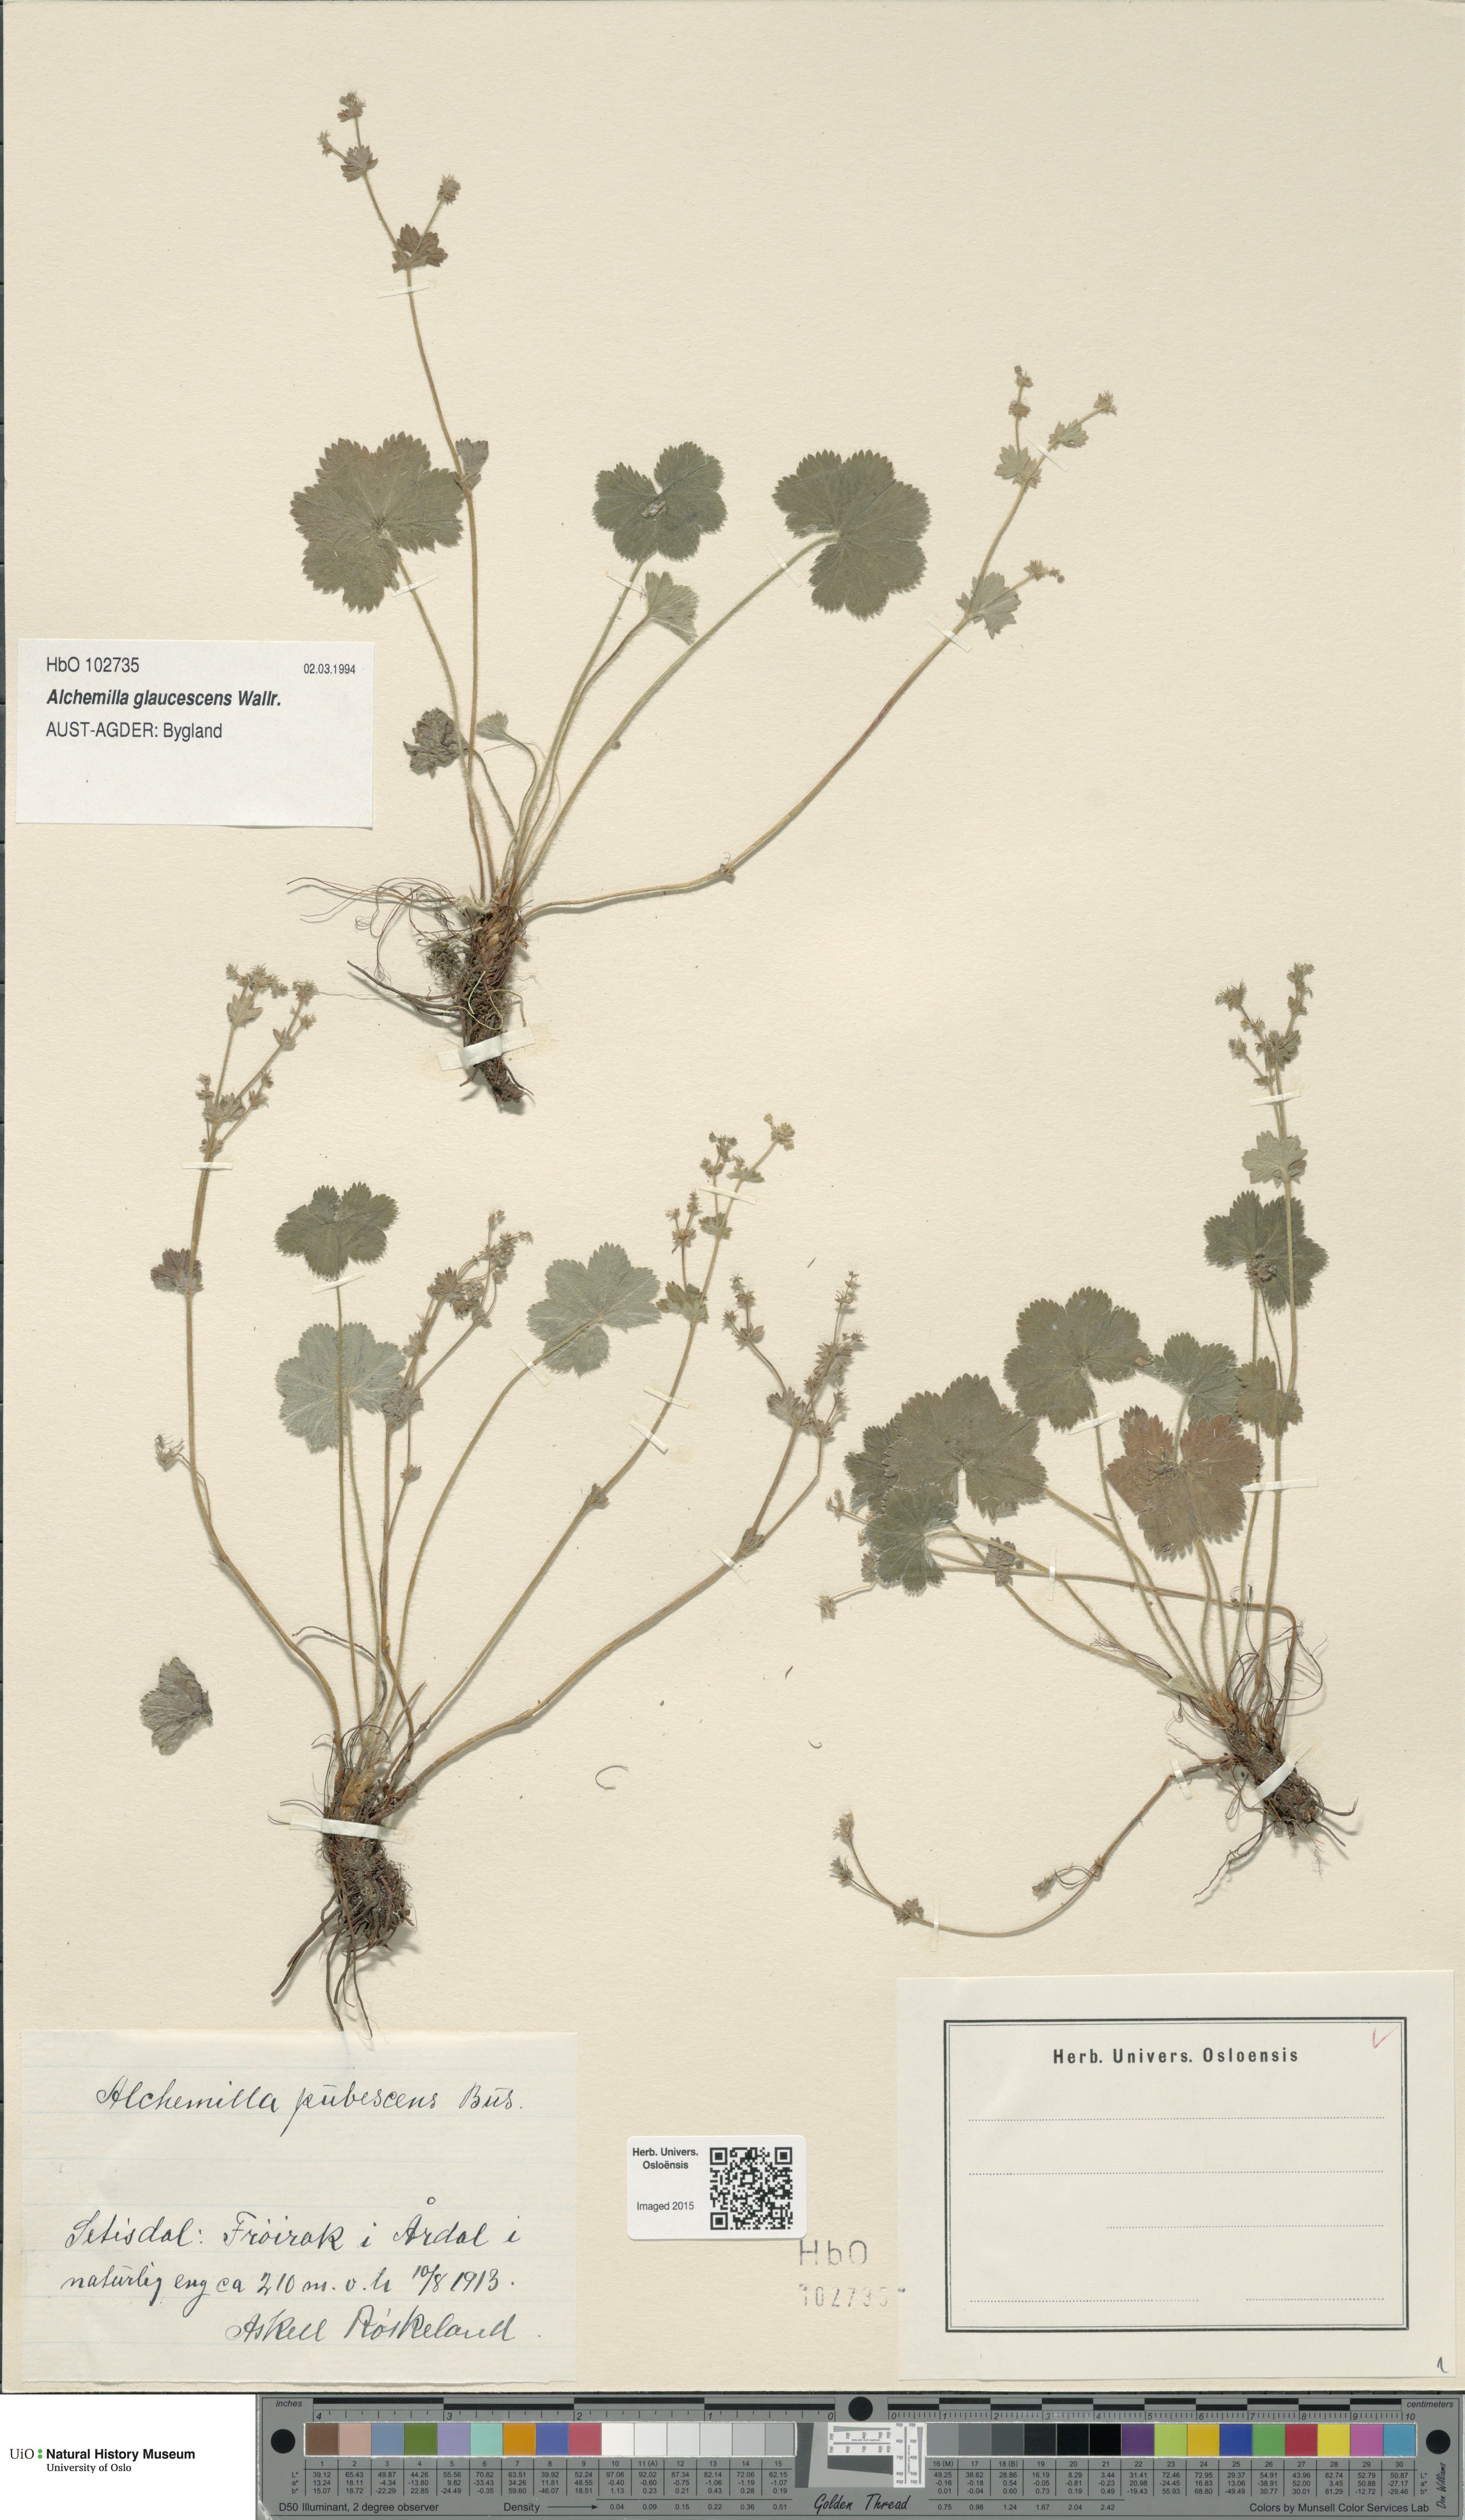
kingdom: Plantae
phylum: Tracheophyta
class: Magnoliopsida
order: Rosales
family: Rosaceae
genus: Alchemilla
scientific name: Alchemilla glaucescens
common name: Silky lady's mantle
